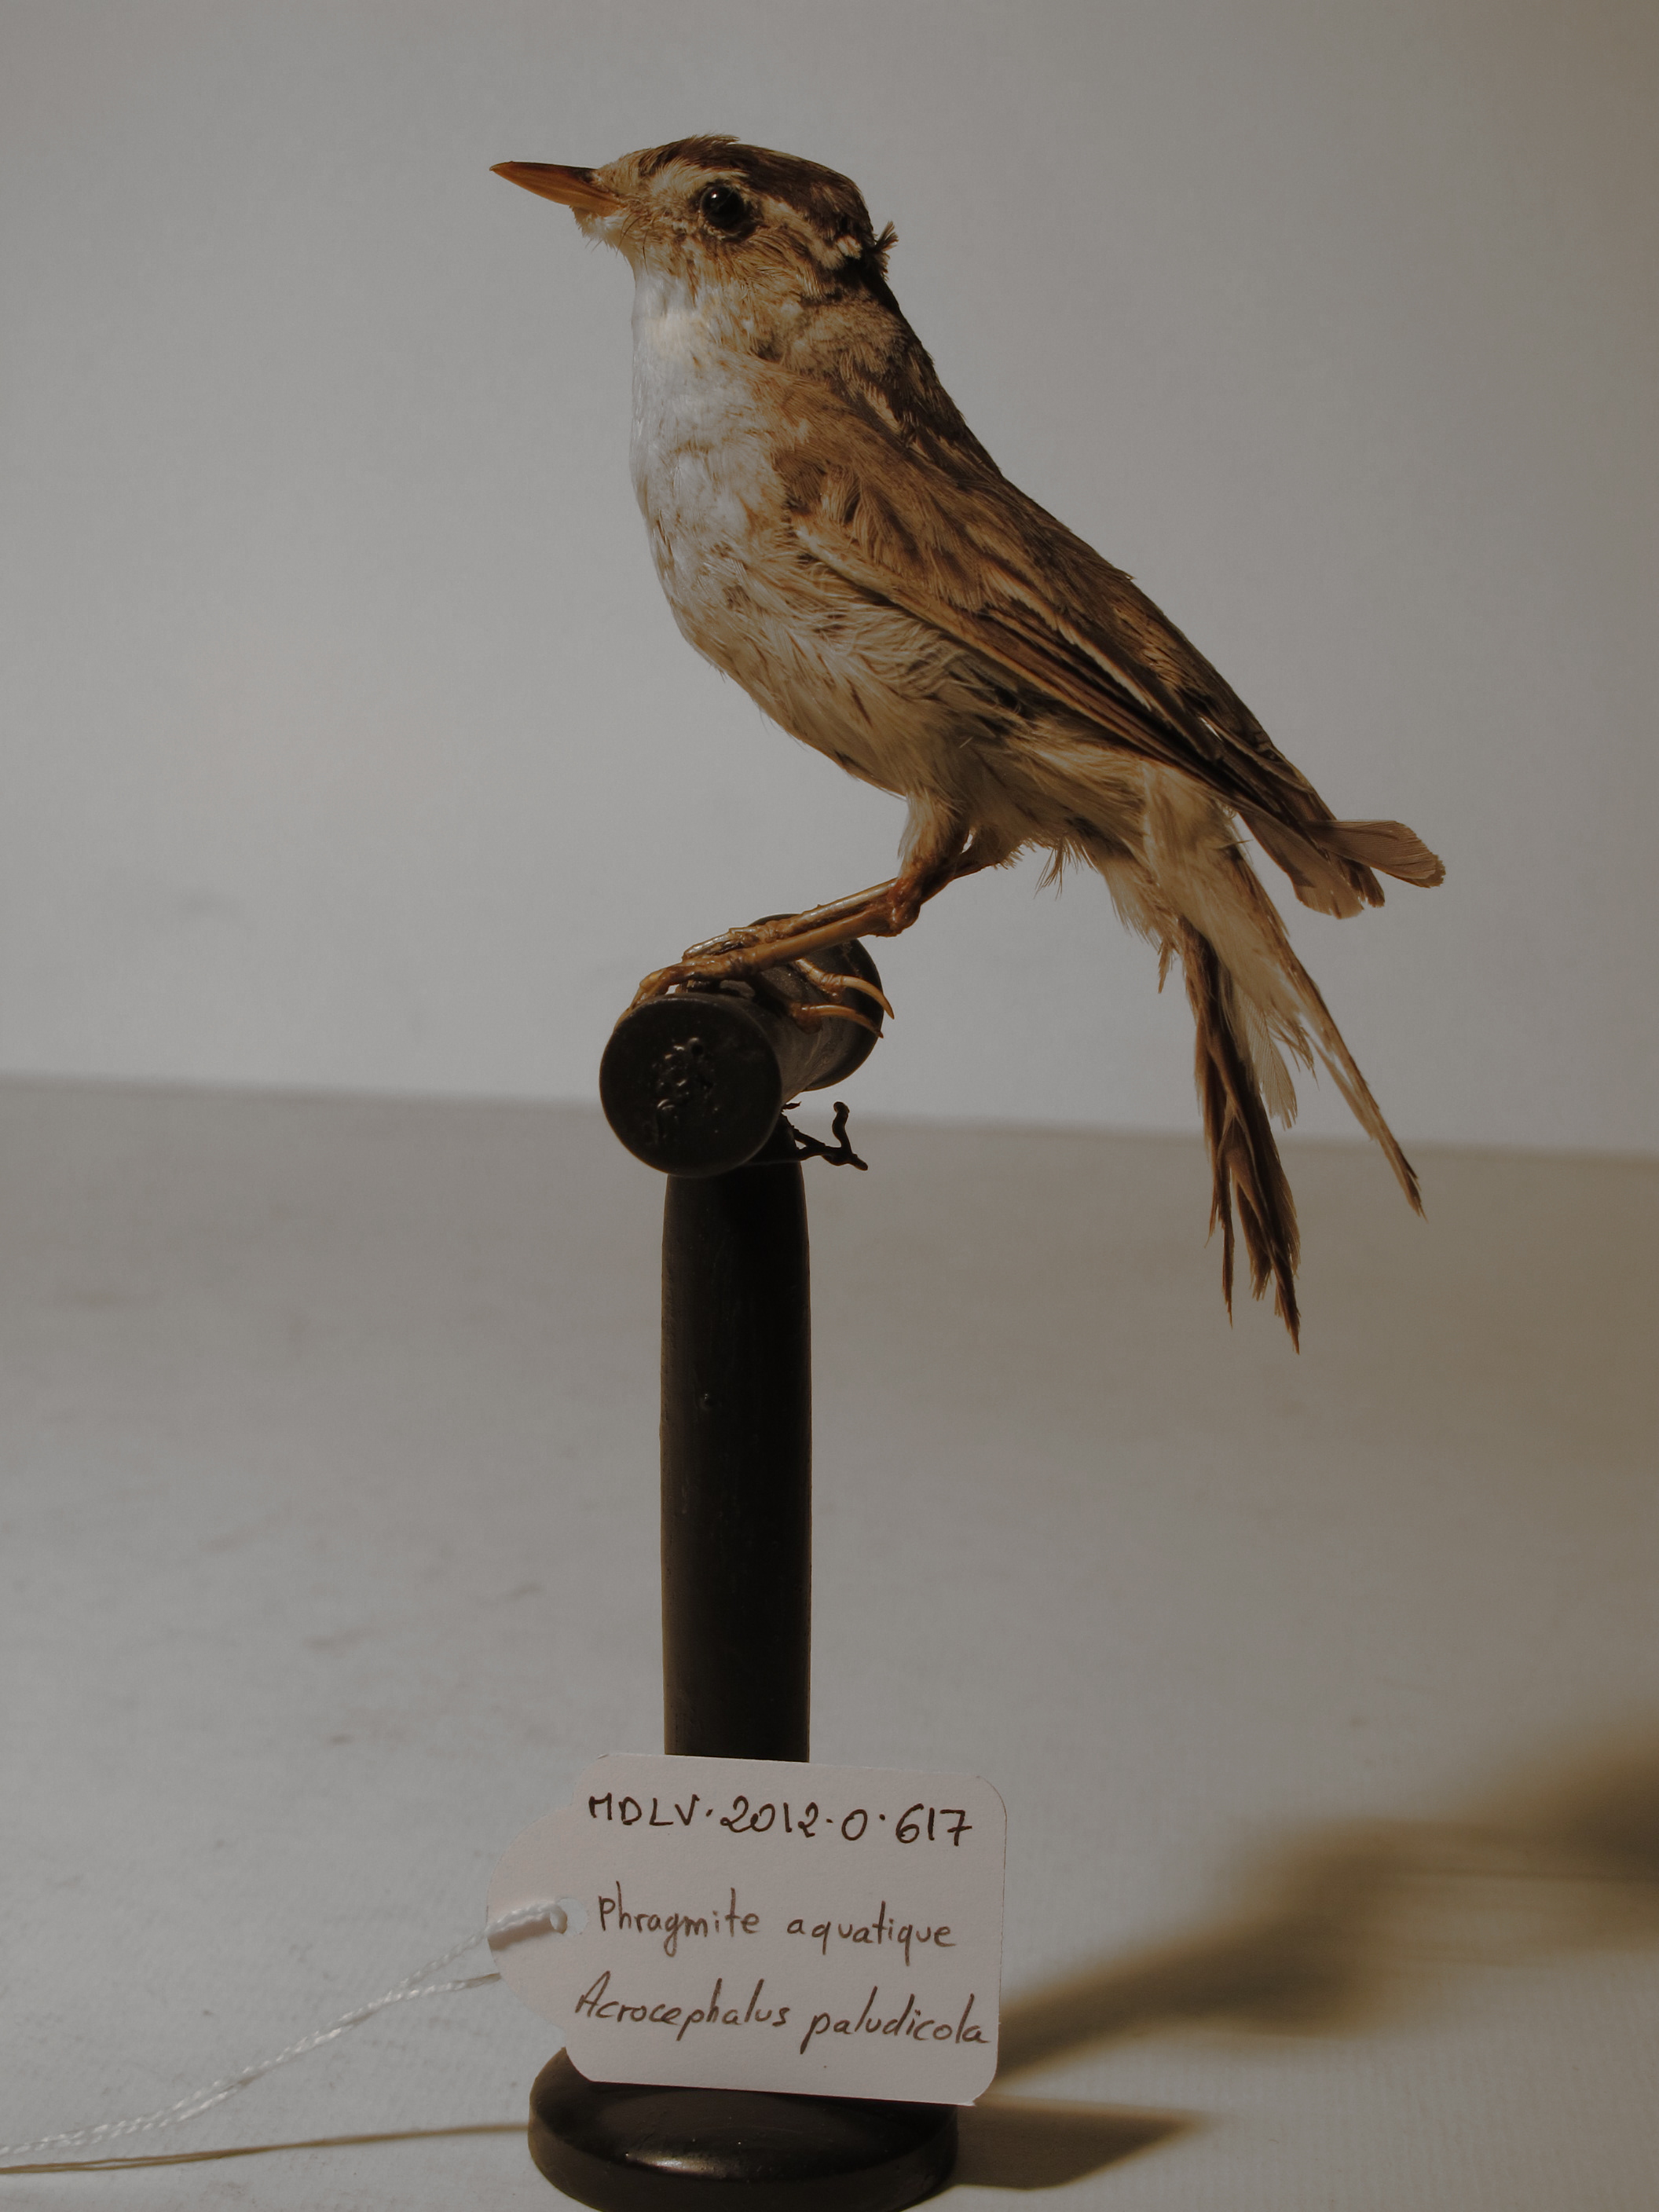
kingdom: Animalia
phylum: Chordata
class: Aves
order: Passeriformes
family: Acrocephalidae
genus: Acrocephalus
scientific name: Acrocephalus paludicola
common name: Aquatic Warbler
